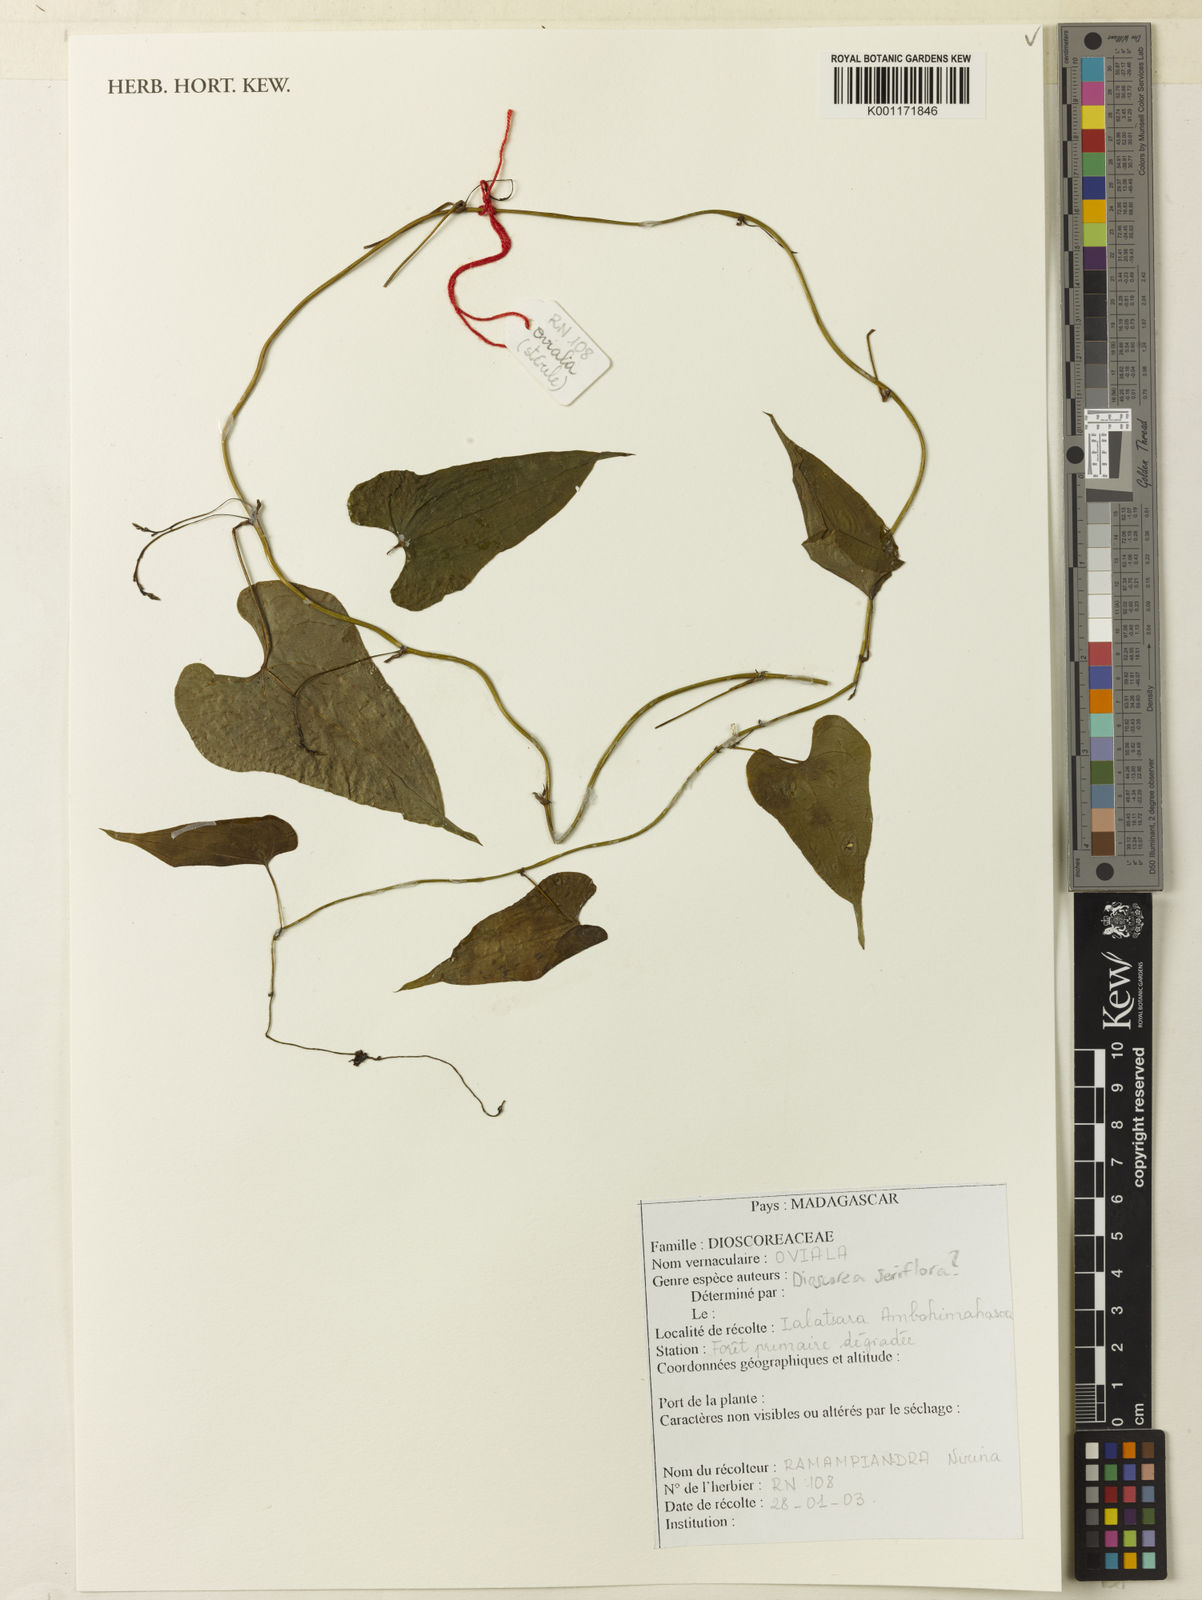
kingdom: Plantae
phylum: Tracheophyta
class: Liliopsida
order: Dioscoreales
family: Dioscoreaceae
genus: Dioscorea
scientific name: Dioscorea seriflora
